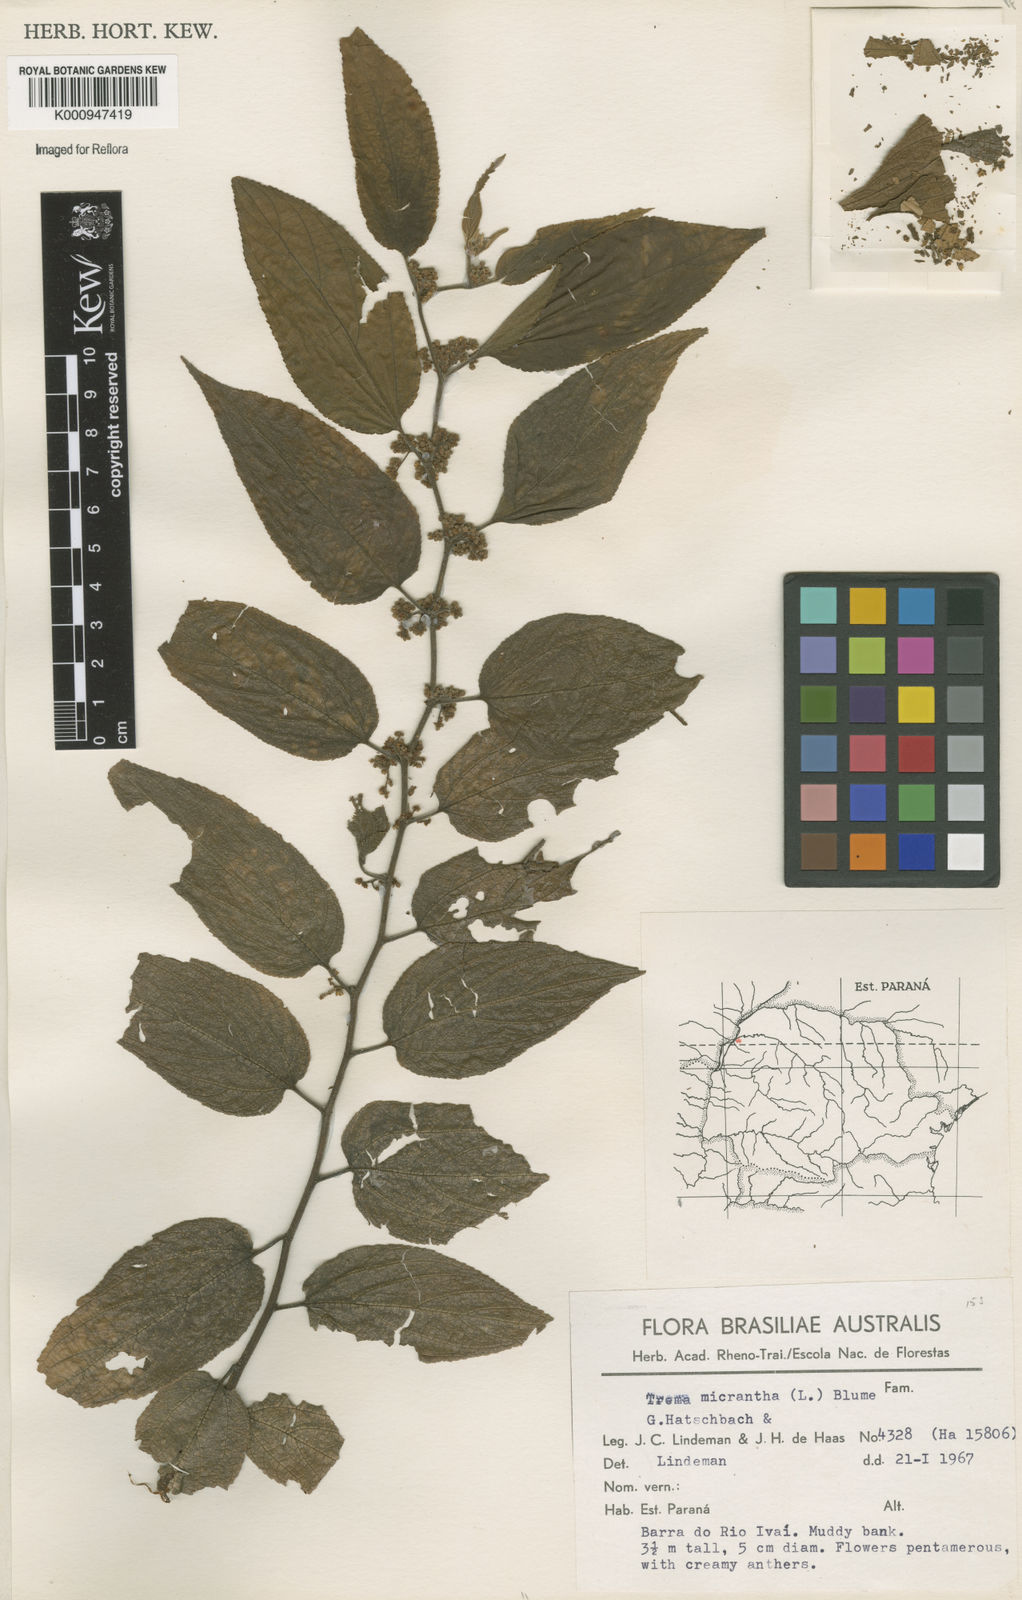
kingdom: Plantae
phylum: Tracheophyta
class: Magnoliopsida
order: Rosales
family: Cannabaceae
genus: Trema
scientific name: Trema micranthum
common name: Jamaican nettletree
